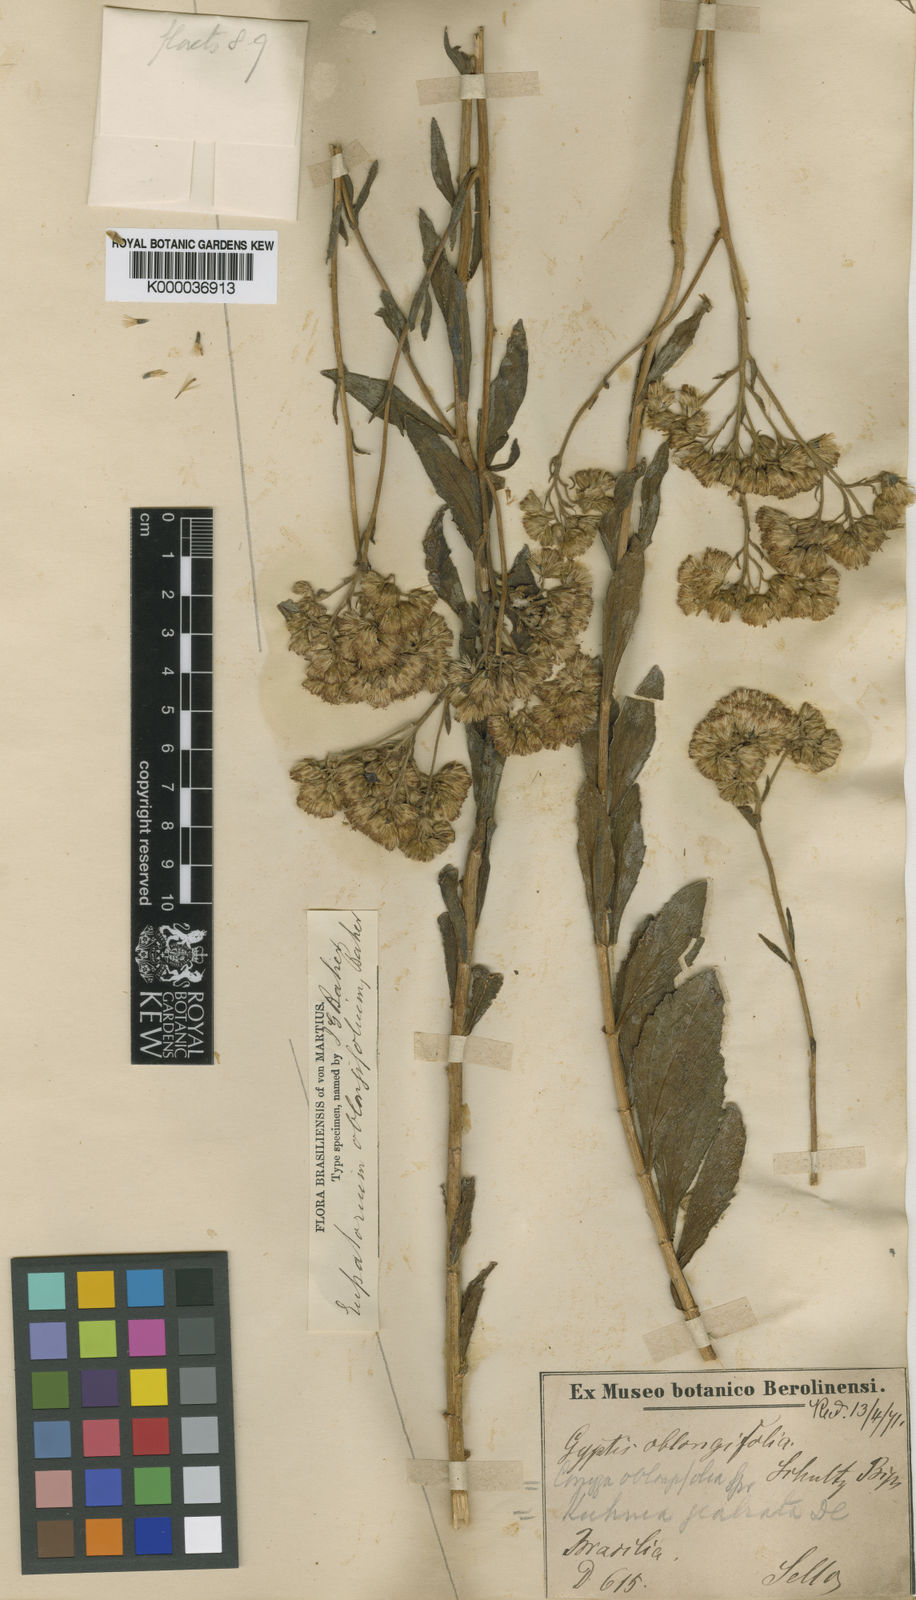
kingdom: Plantae
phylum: Tracheophyta
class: Magnoliopsida
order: Asterales
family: Asteraceae
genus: Stomatanthes
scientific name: Stomatanthes oblongifolius
